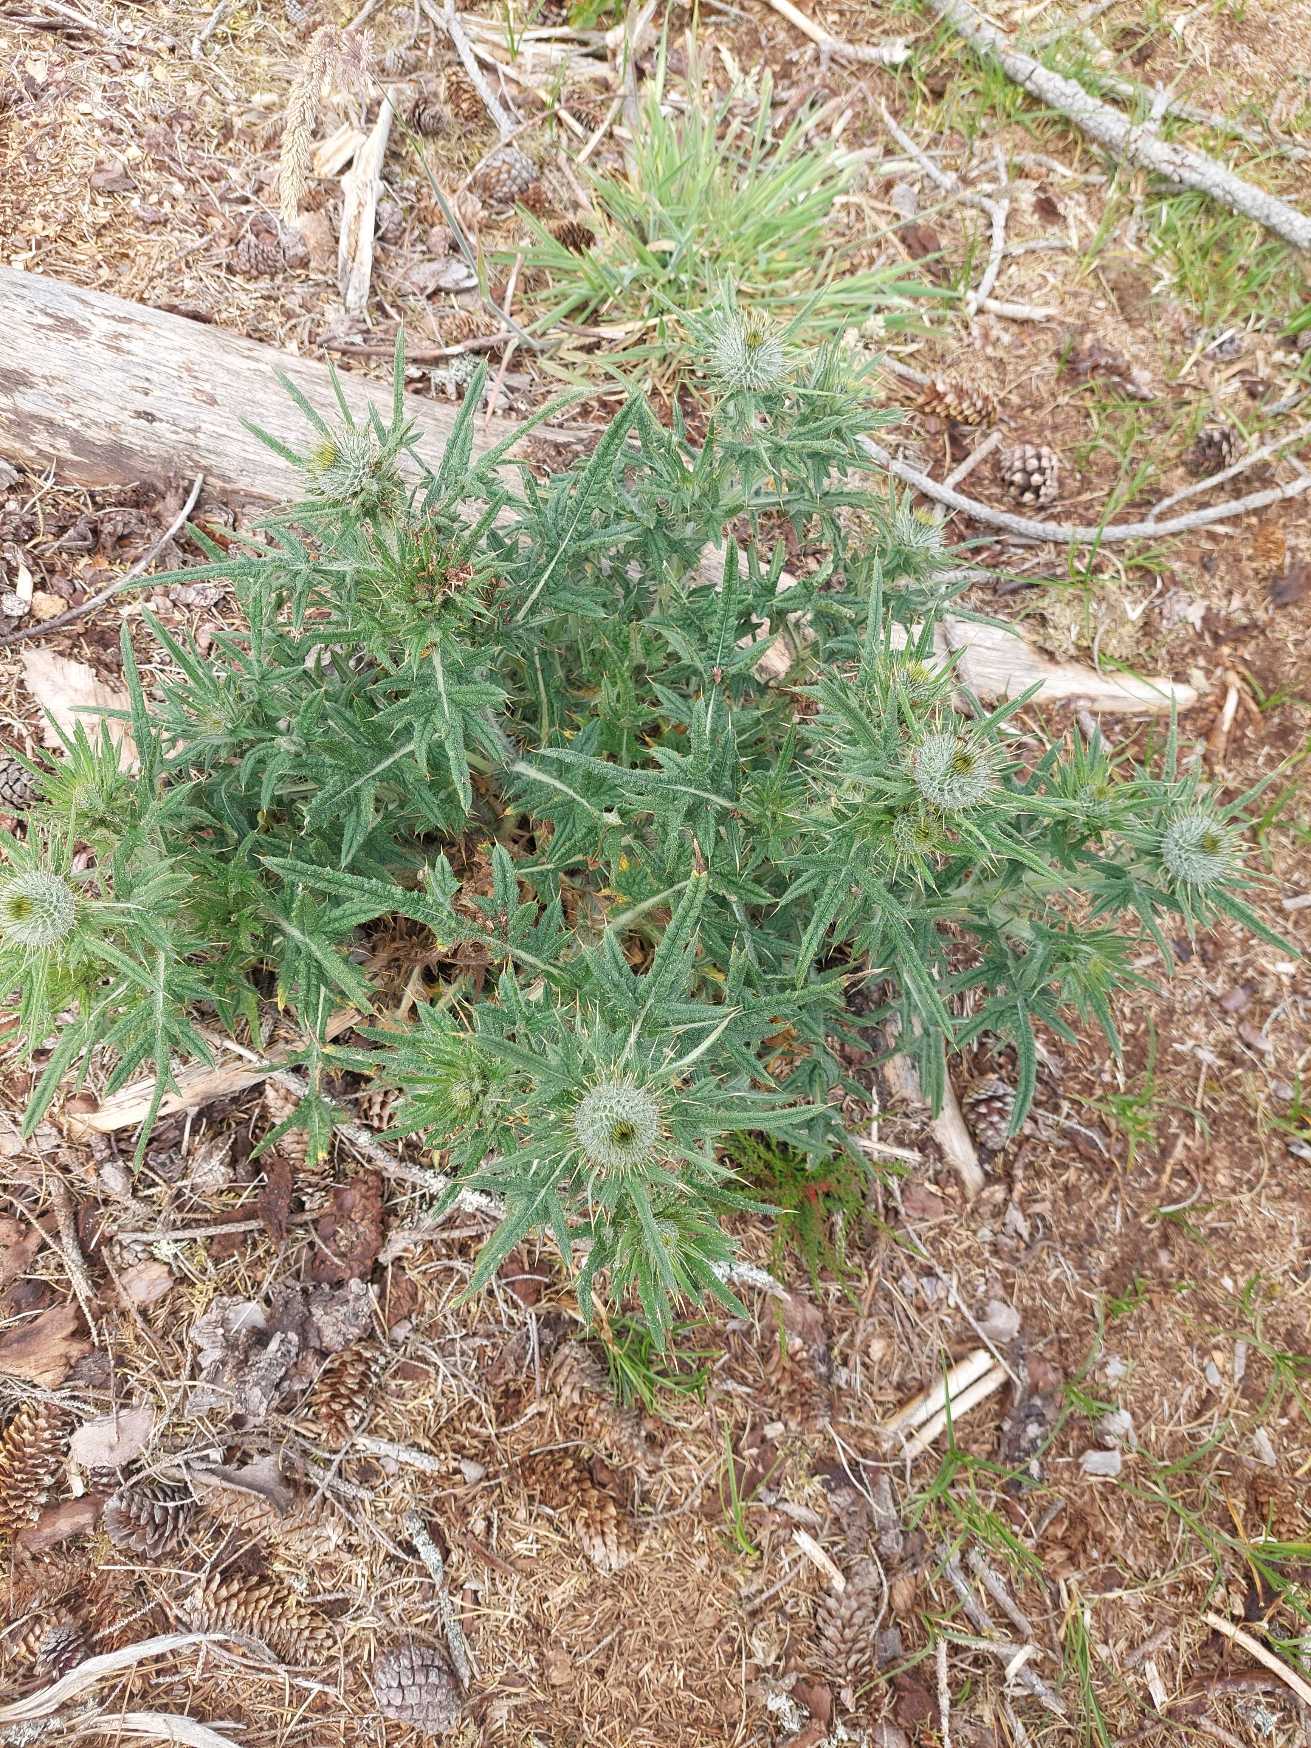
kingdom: Plantae
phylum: Tracheophyta
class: Magnoliopsida
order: Asterales
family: Asteraceae
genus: Cirsium
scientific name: Cirsium vulgare
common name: Horse-tidsel
